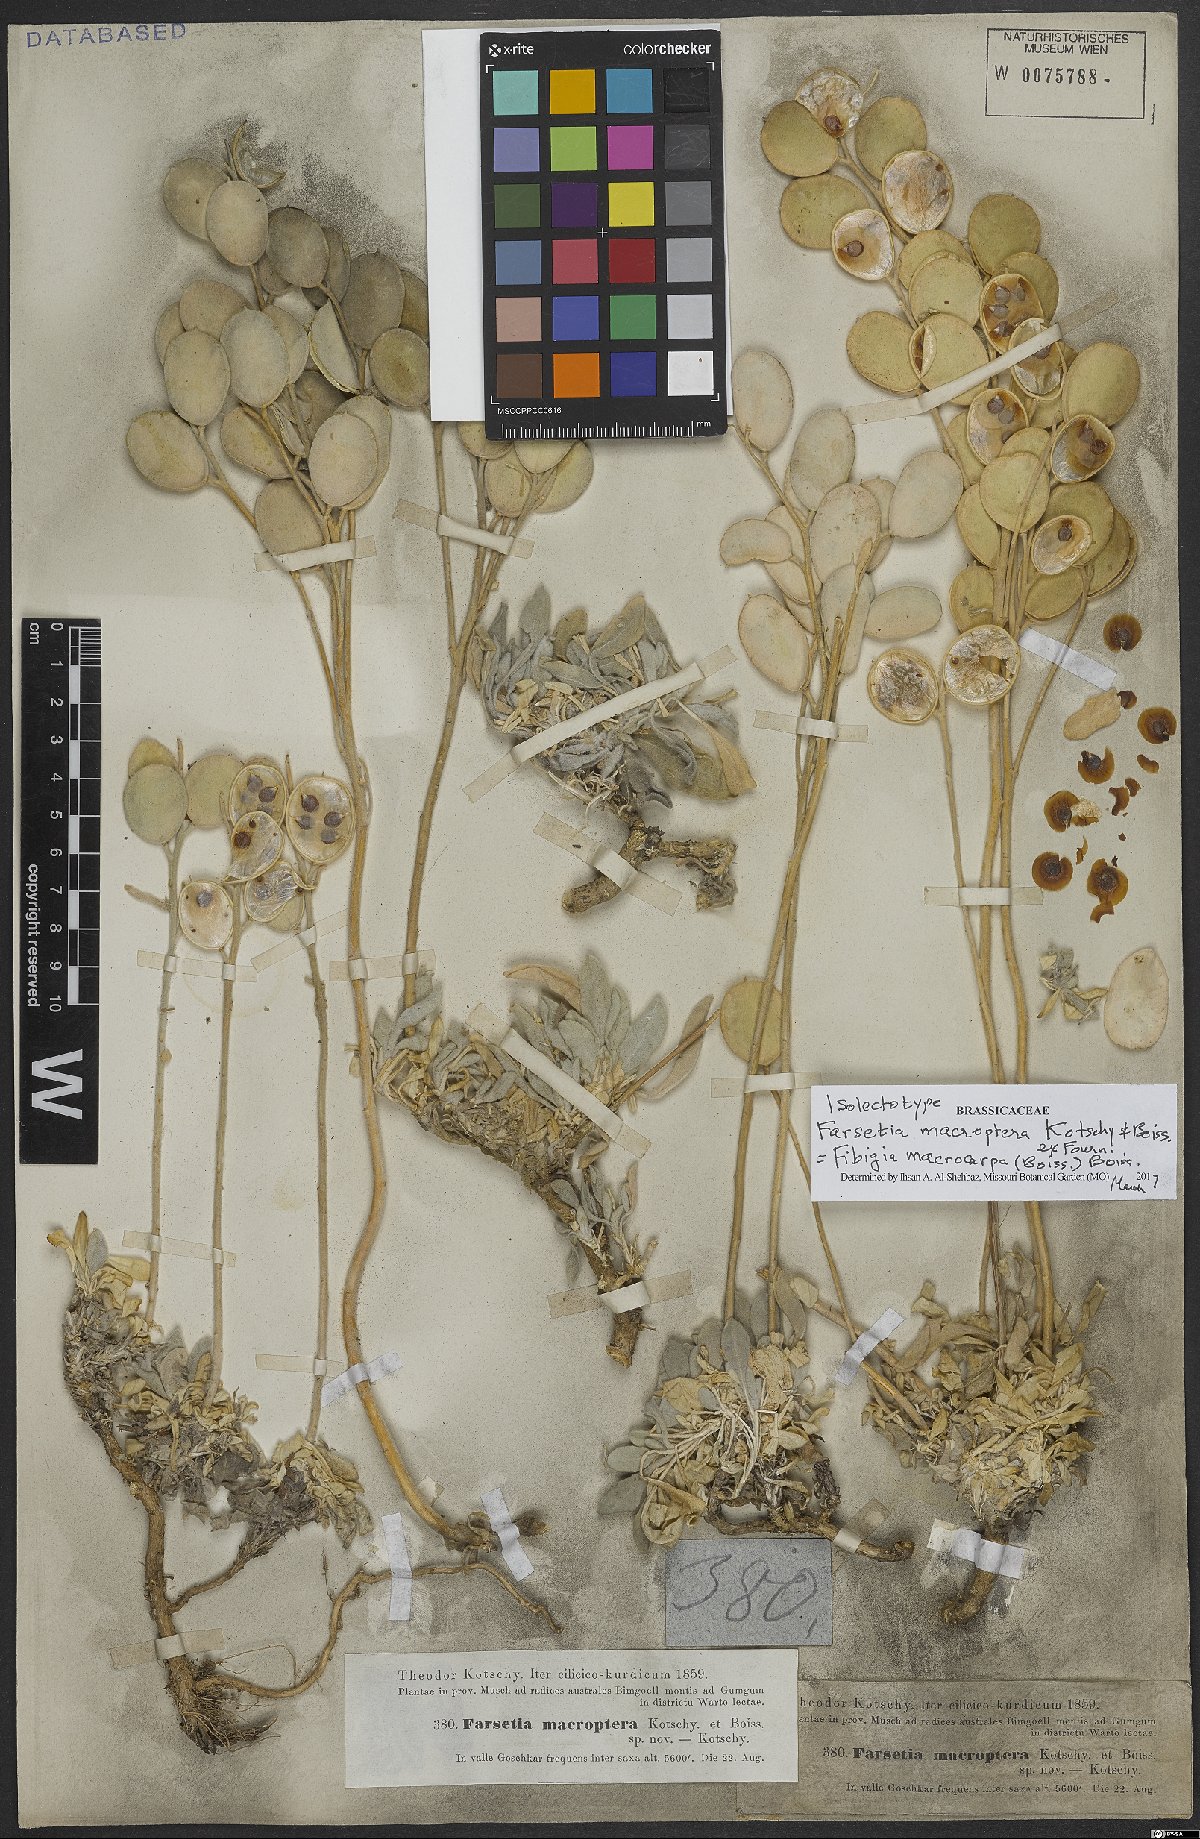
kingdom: Plantae
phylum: Tracheophyta
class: Magnoliopsida
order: Brassicales
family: Brassicaceae
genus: Fibigia
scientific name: Fibigia macrocarpa
